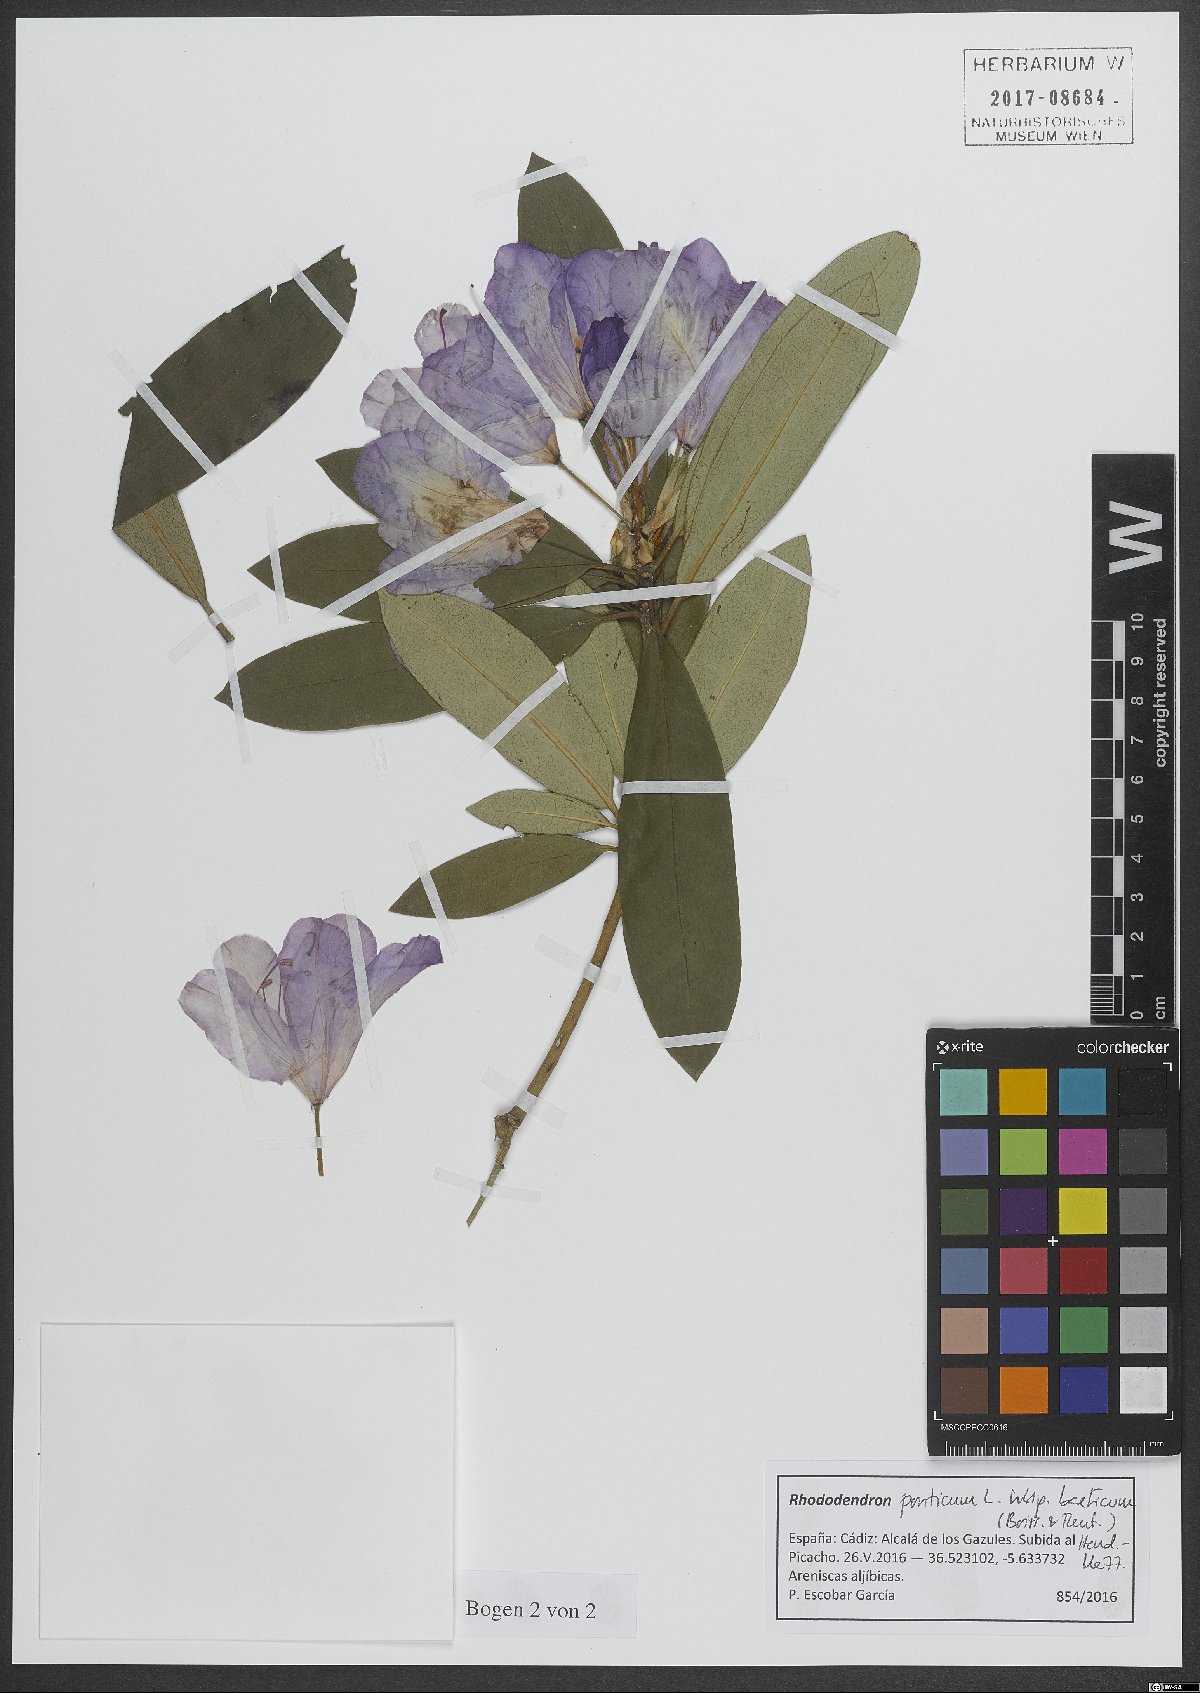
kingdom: Plantae
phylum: Tracheophyta
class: Magnoliopsida
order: Ericales
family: Ericaceae
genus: Rhododendron
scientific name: Rhododendron ponticum
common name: Rhododendron
